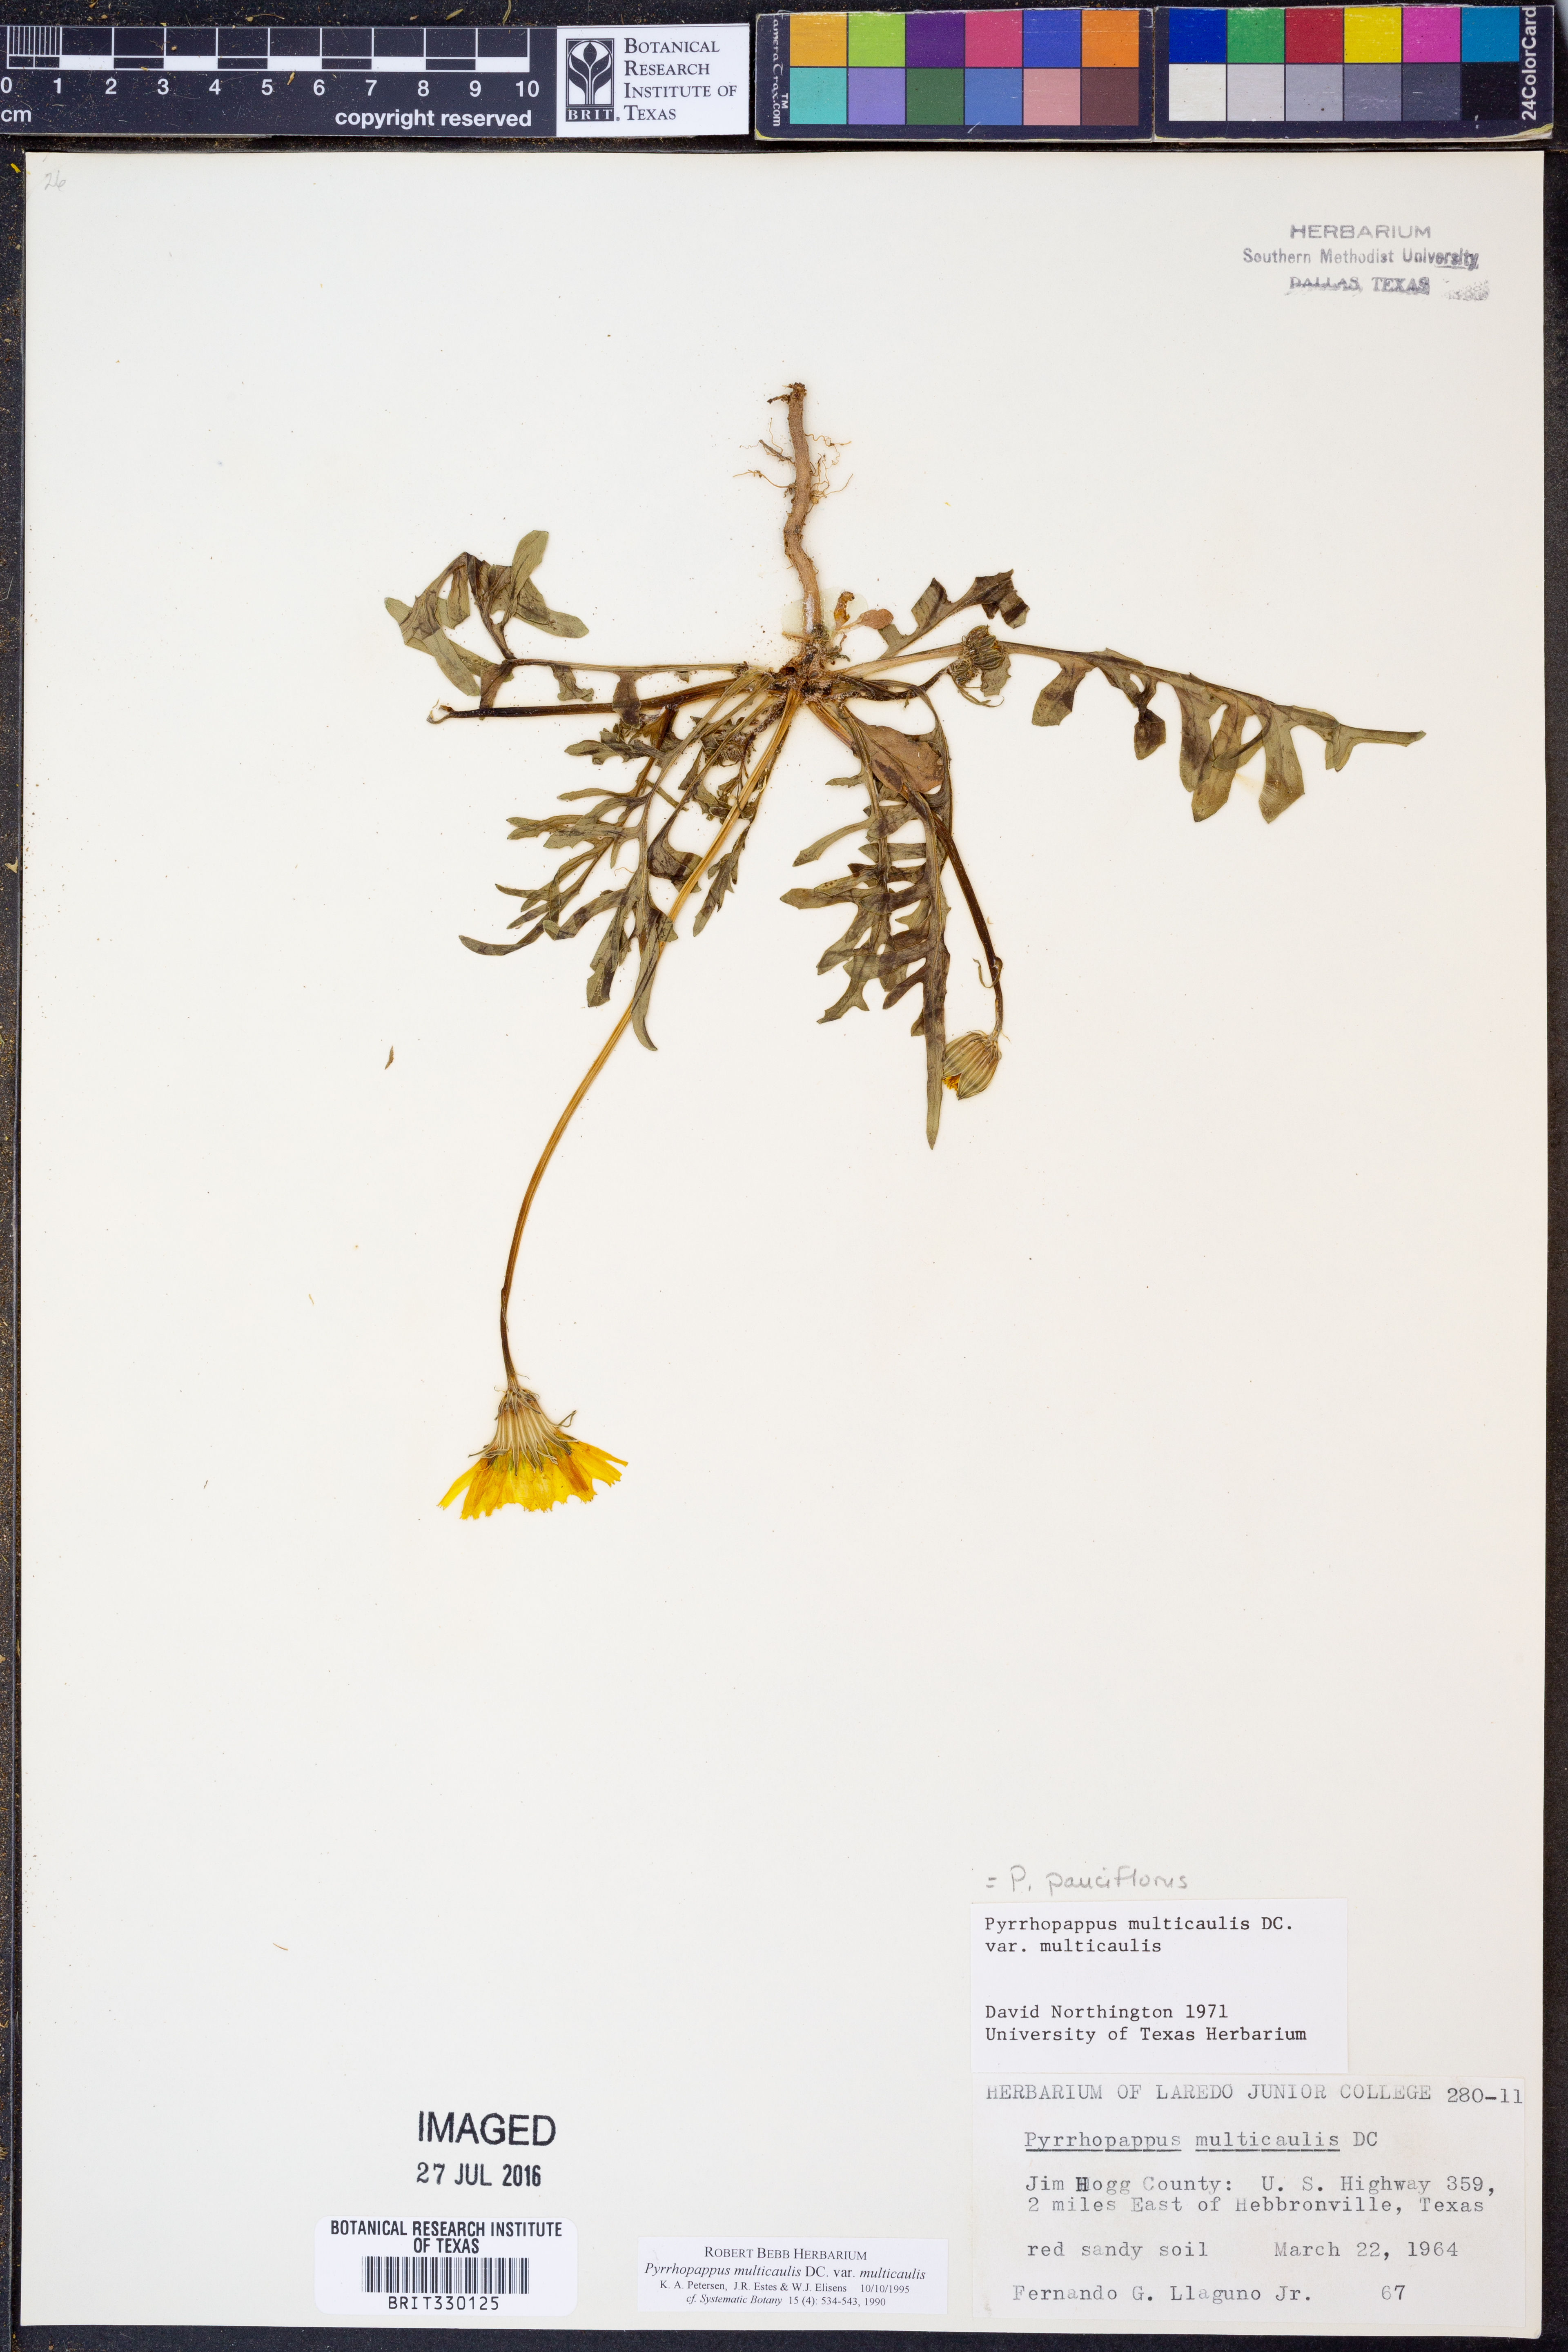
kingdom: Plantae
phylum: Tracheophyta
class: Magnoliopsida
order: Asterales
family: Asteraceae
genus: Pyrrhopappus
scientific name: Pyrrhopappus pauciflorus
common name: Texas false dandelion
